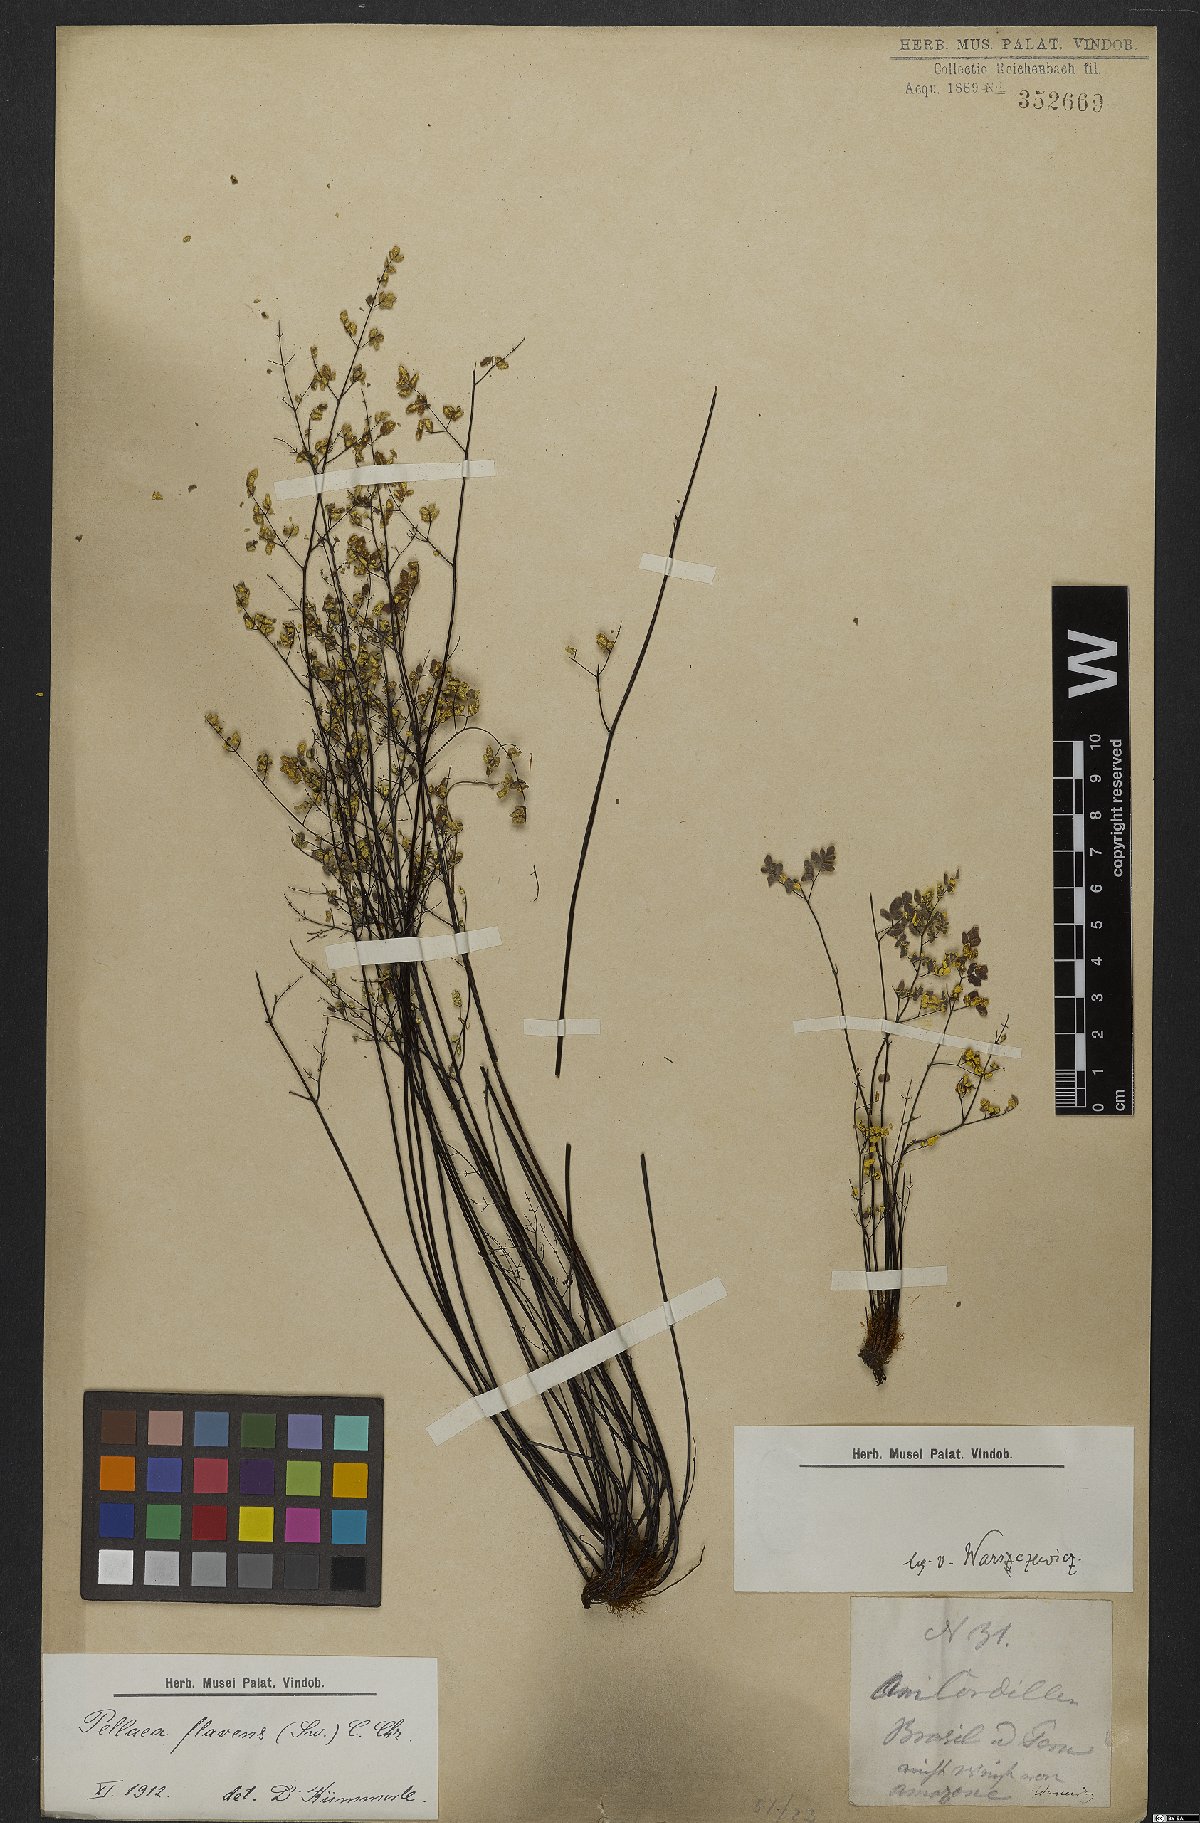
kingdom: Plantae
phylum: Tracheophyta
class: Polypodiopsida
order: Polypodiales
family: Pteridaceae
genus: Argyrochosma
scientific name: Argyrochosma flava
